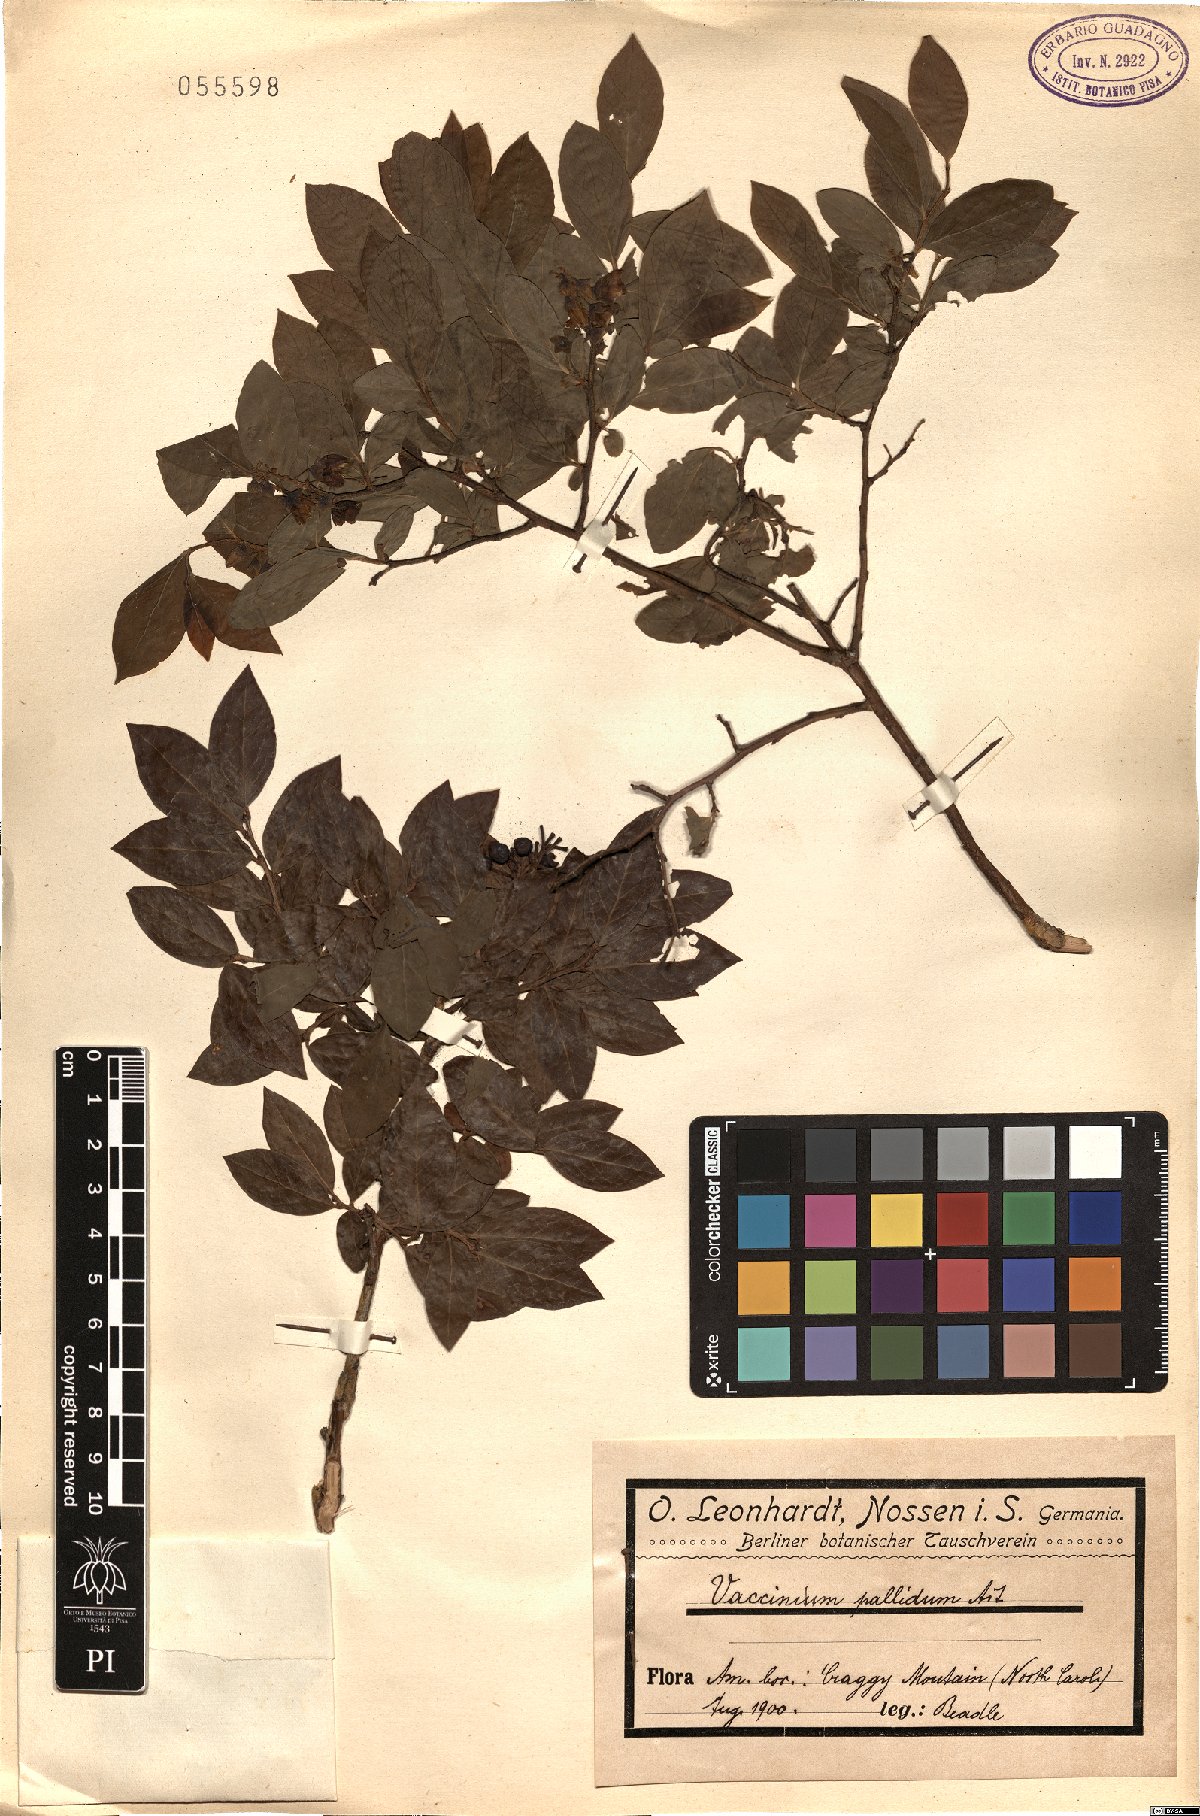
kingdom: Plantae
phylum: Tracheophyta
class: Magnoliopsida
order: Ericales
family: Ericaceae
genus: Vaccinium
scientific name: Vaccinium pallidum
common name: Blue ridge blueberry
